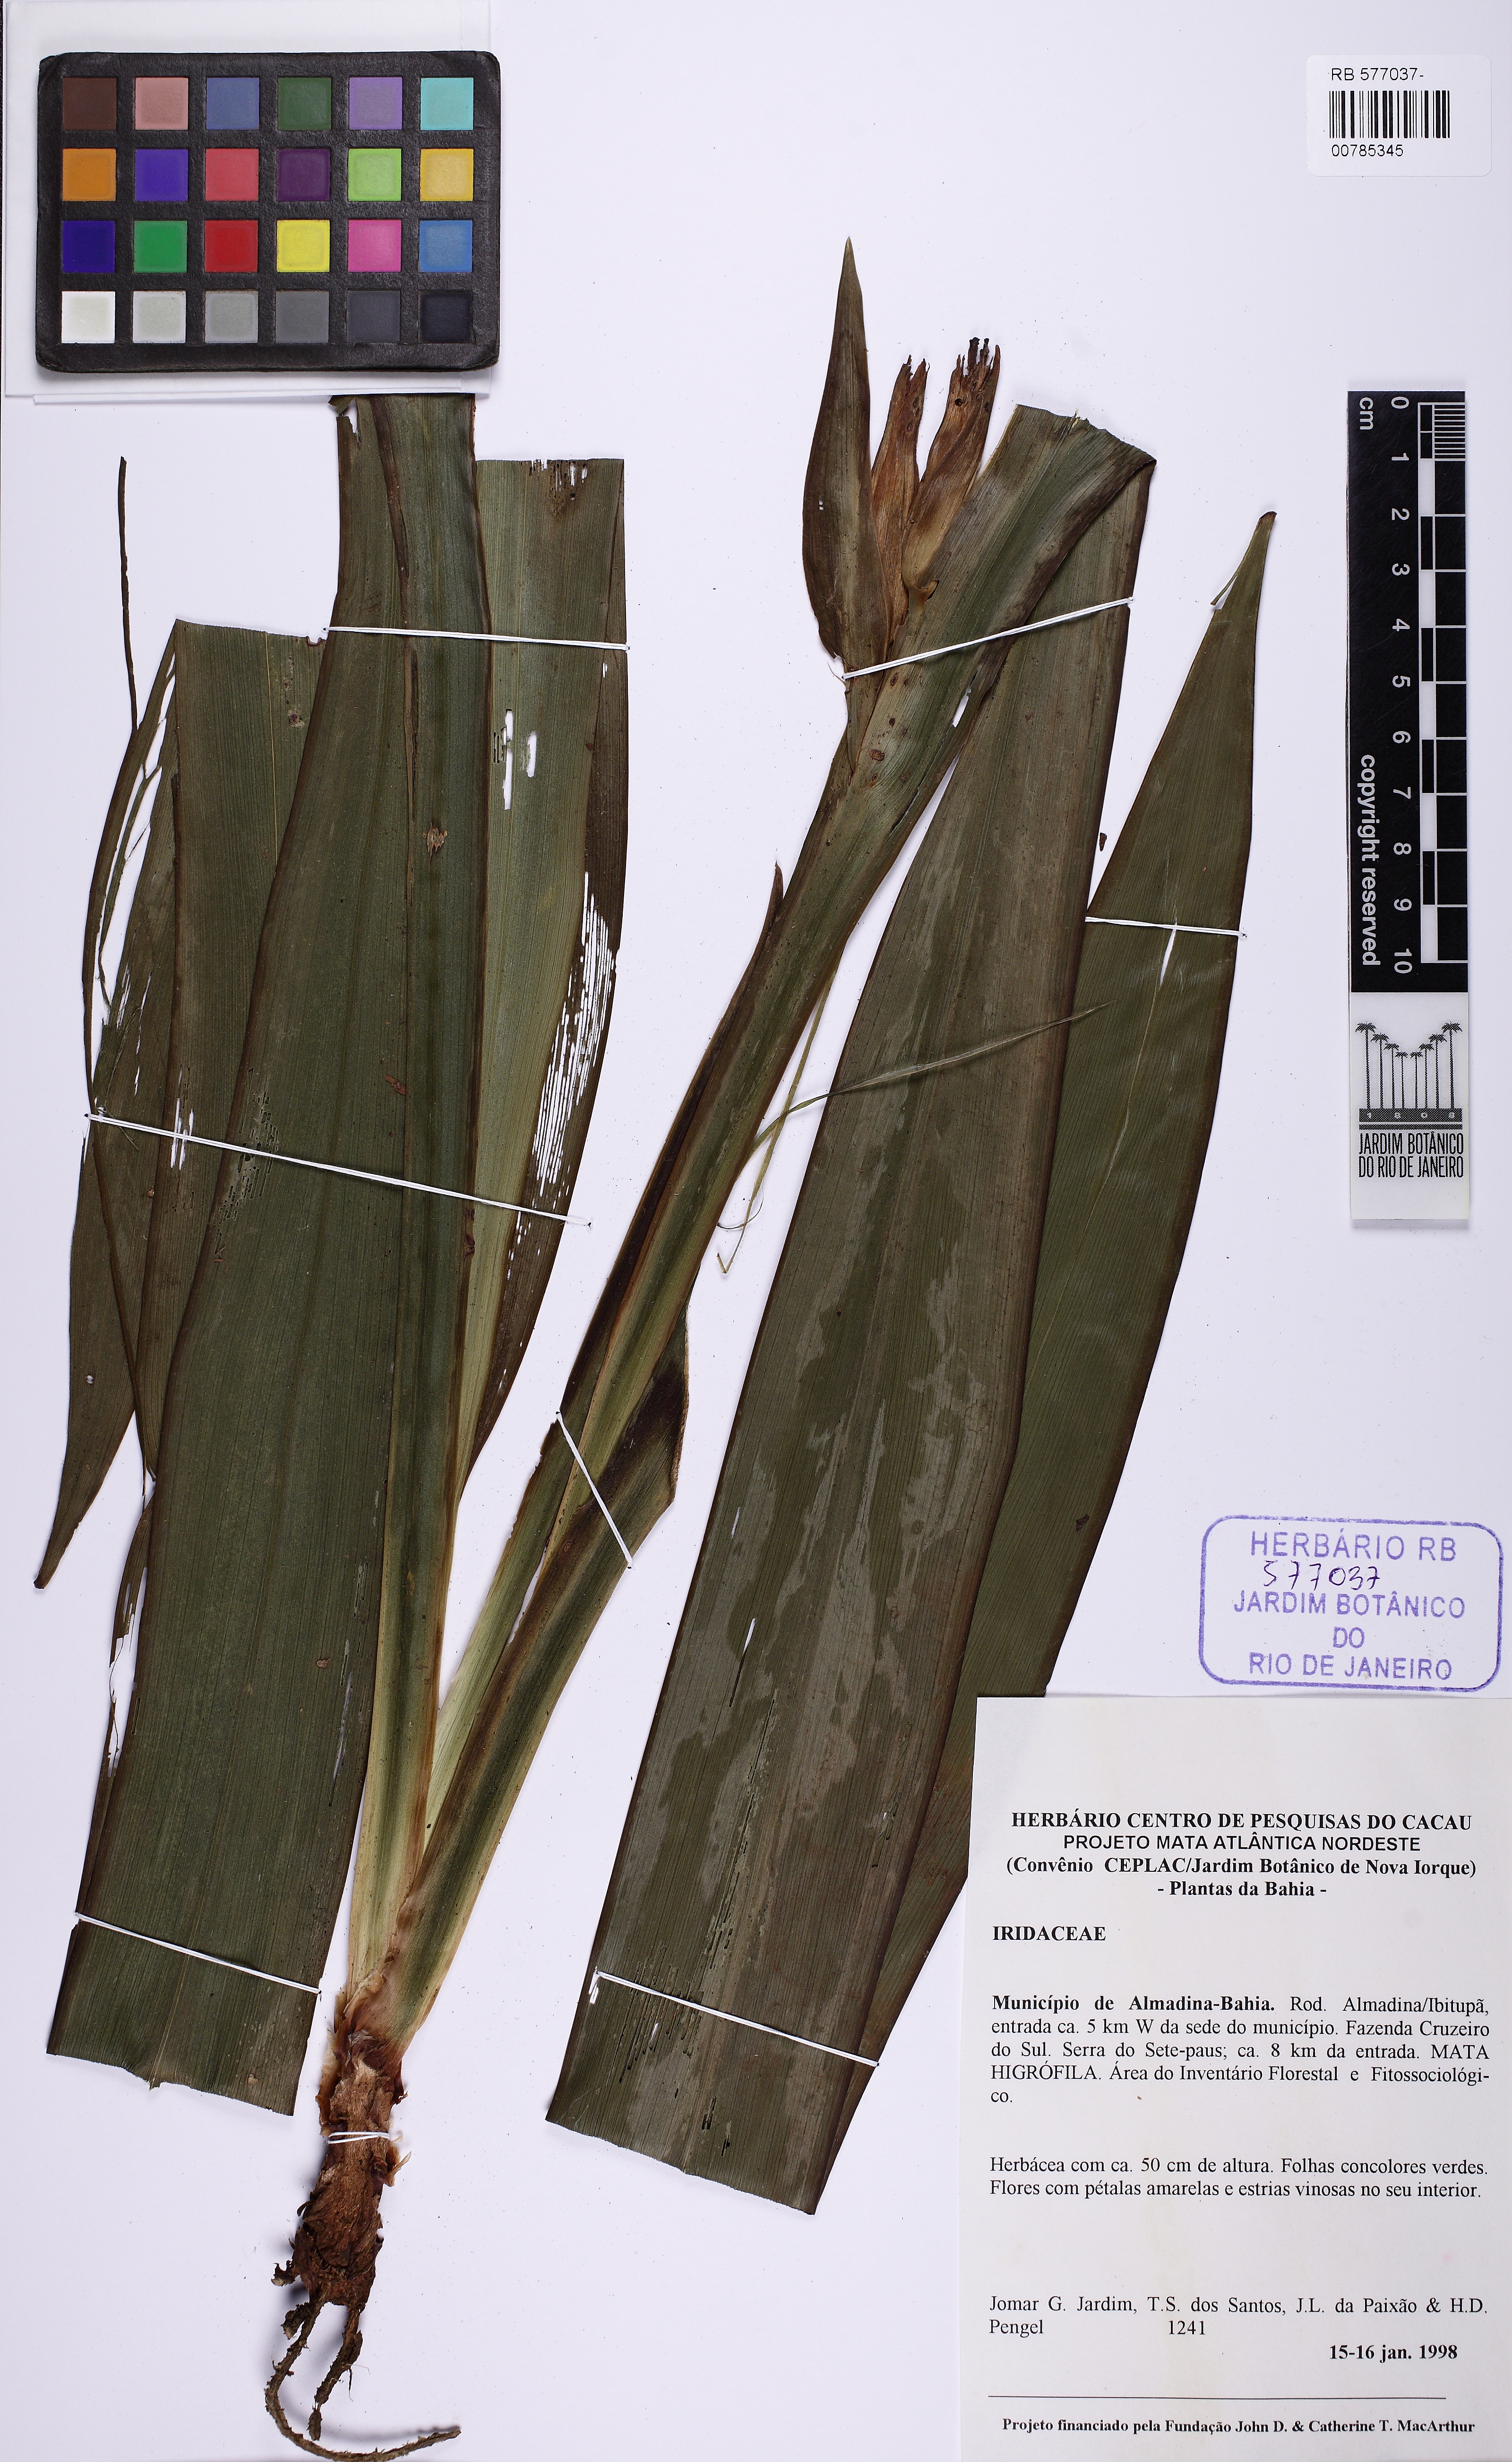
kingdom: Plantae
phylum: Tracheophyta
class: Liliopsida
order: Asparagales
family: Iridaceae
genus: Trimezia
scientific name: Trimezia brachypus
